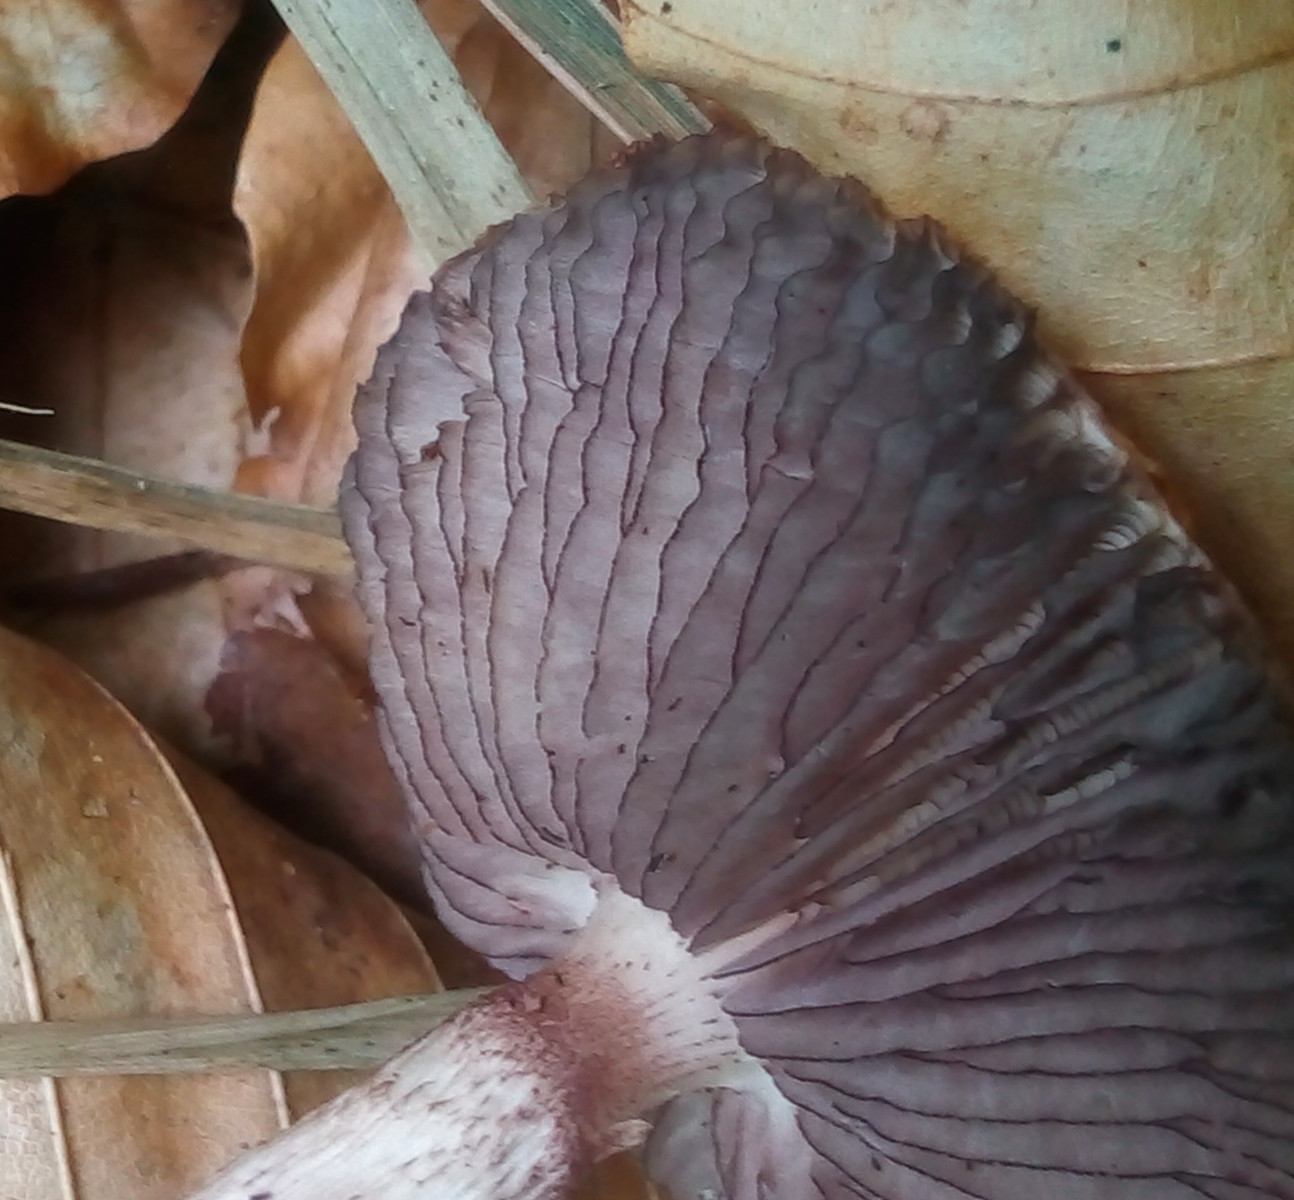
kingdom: Fungi
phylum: Basidiomycota
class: Agaricomycetes
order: Agaricales
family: Mycenaceae
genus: Mycena
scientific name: Mycena pelianthina
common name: mørkbladet huesvamp
